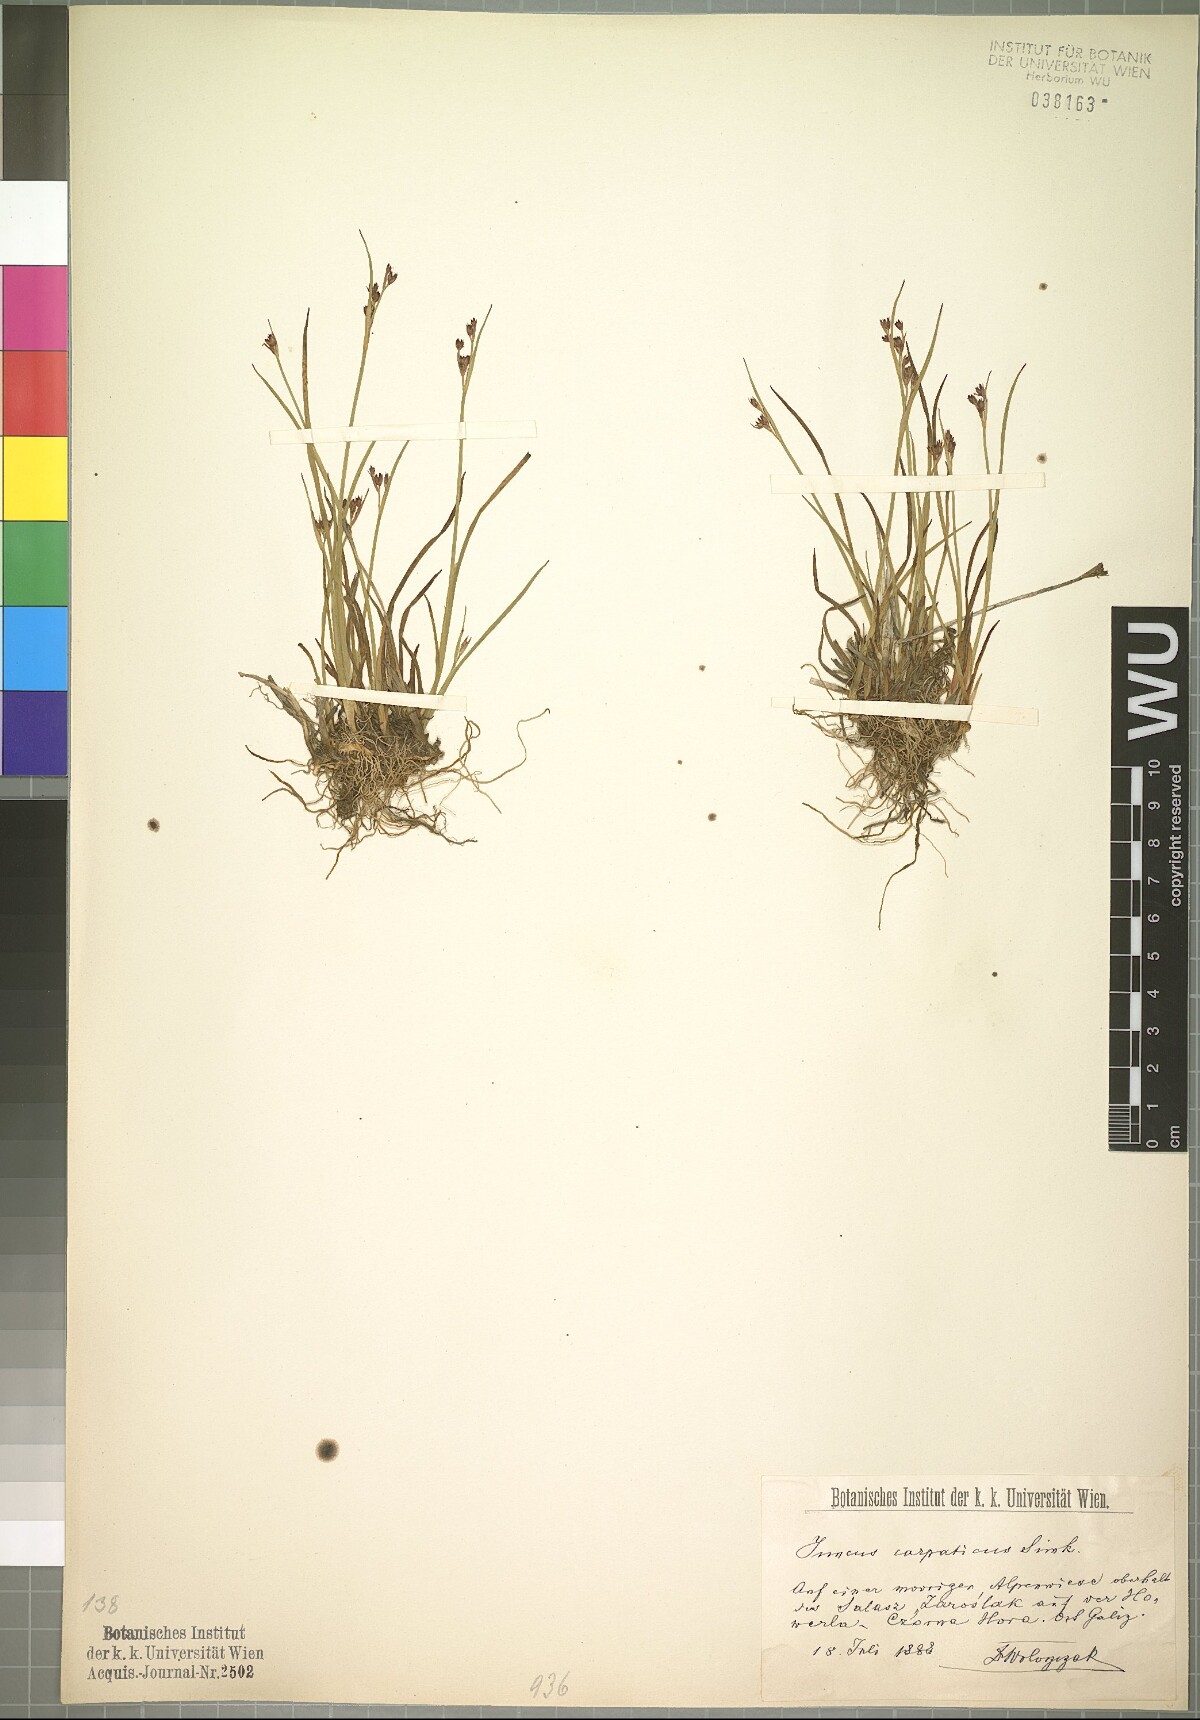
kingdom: Plantae
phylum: Tracheophyta
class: Liliopsida
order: Poales
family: Juncaceae
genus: Juncus
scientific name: Juncus alpinoarticulatus
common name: Alpine rush
